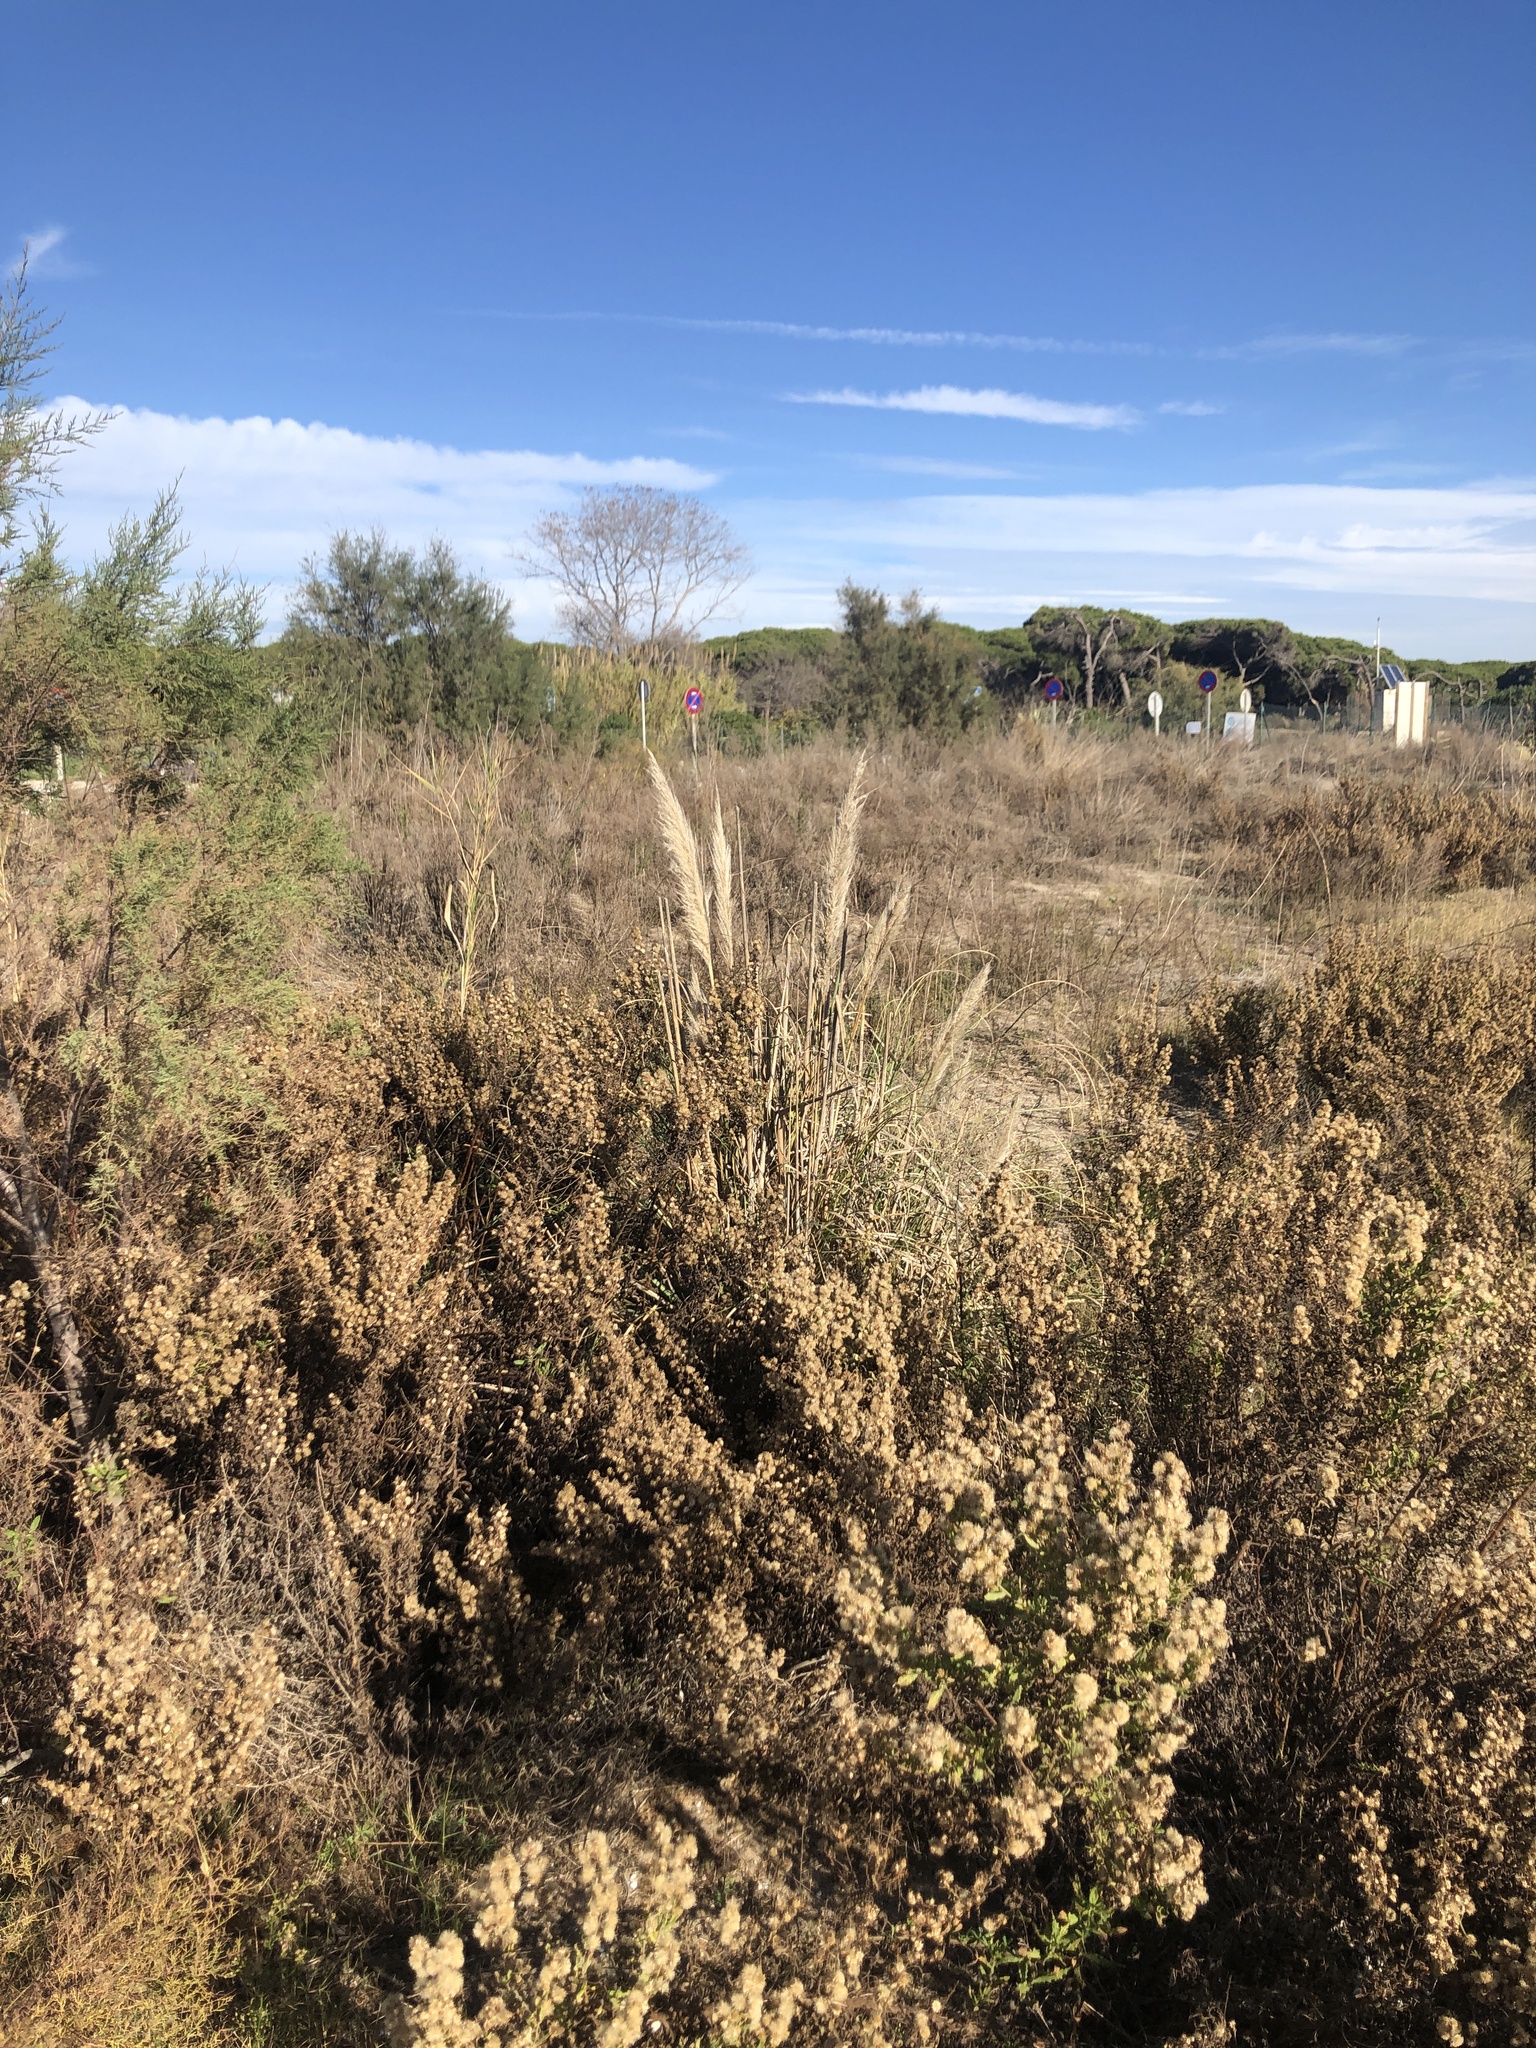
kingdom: Plantae
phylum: Tracheophyta
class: Liliopsida
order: Poales
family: Poaceae
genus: Cortaderia
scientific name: Cortaderia selloana
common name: Uruguayan pampas grass
